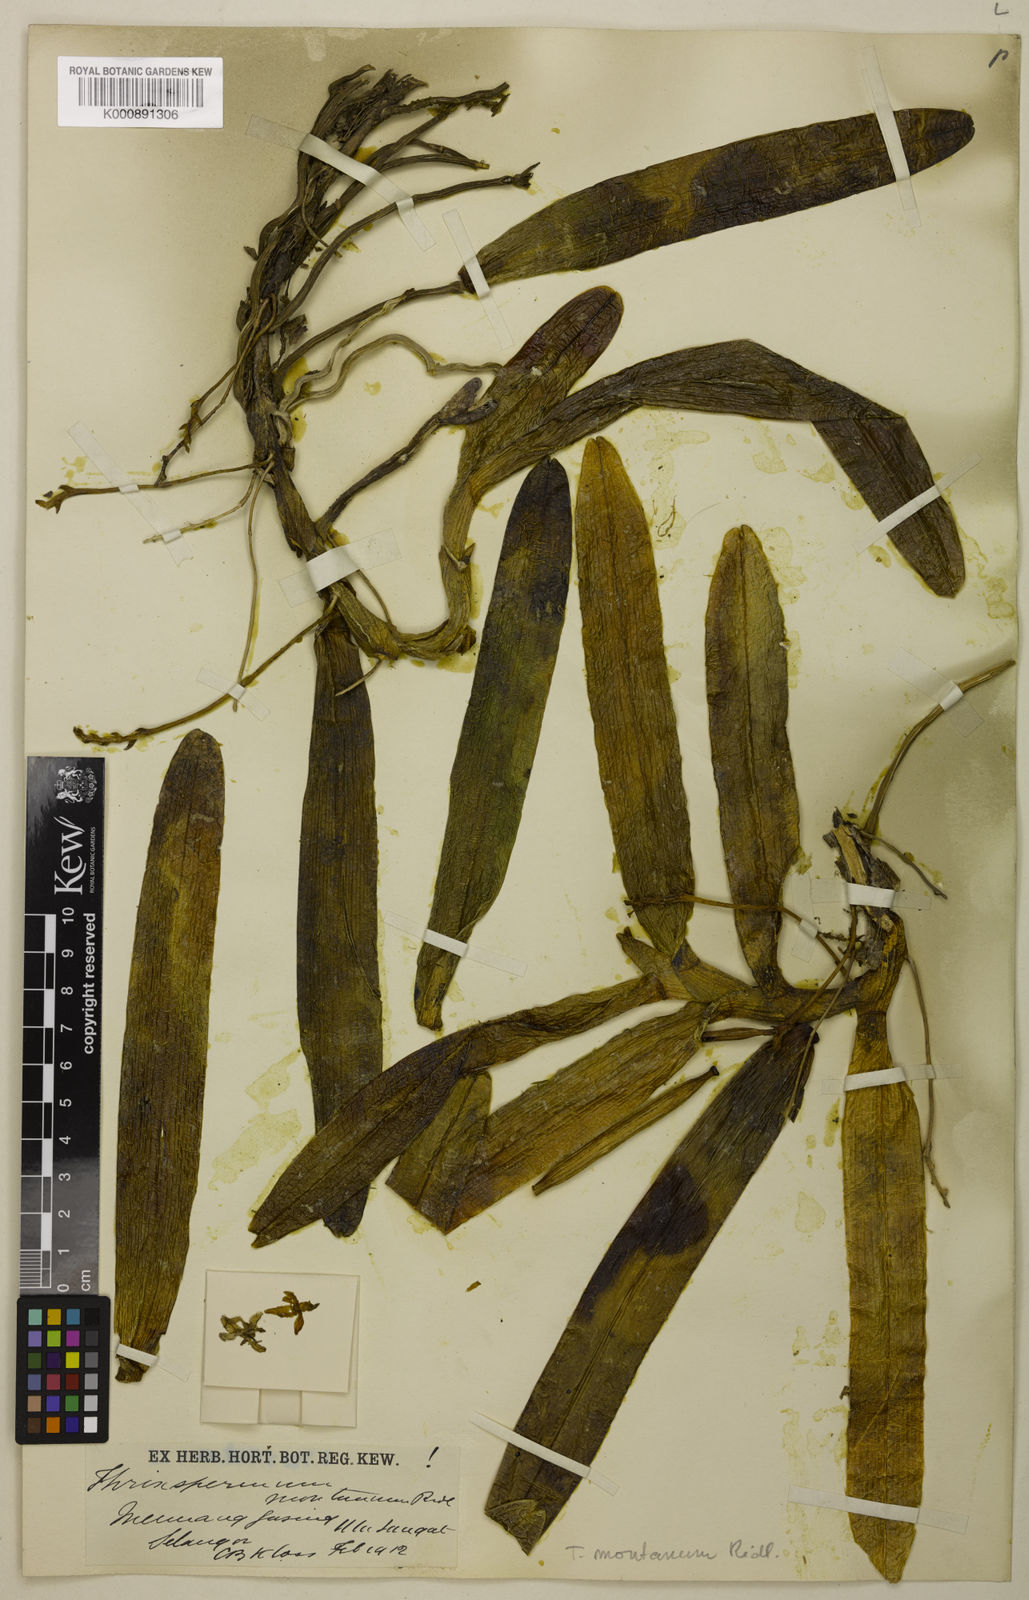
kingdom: Plantae
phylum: Tracheophyta
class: Liliopsida
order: Asparagales
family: Orchidaceae
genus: Thrixspermum
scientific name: Thrixspermum montanum
